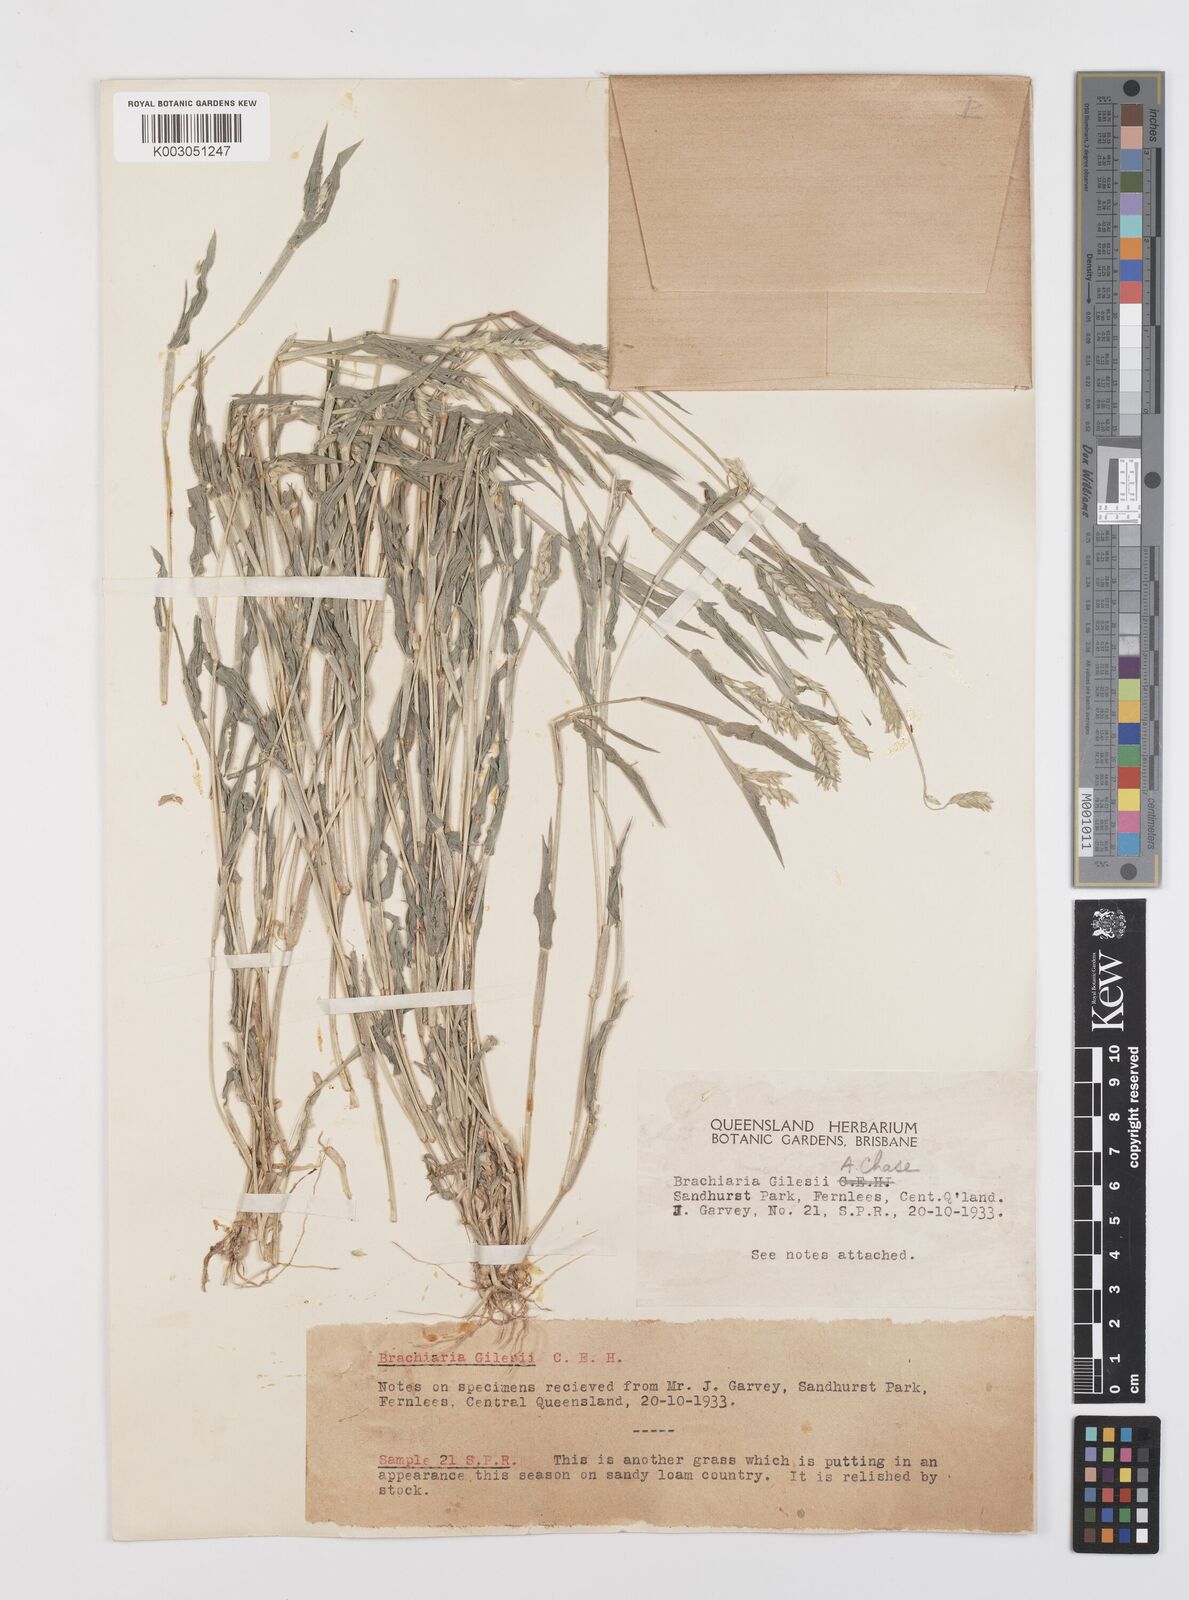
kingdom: Plantae
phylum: Tracheophyta
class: Liliopsida
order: Poales
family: Poaceae
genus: Urochloa
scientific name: Urochloa gilesii
